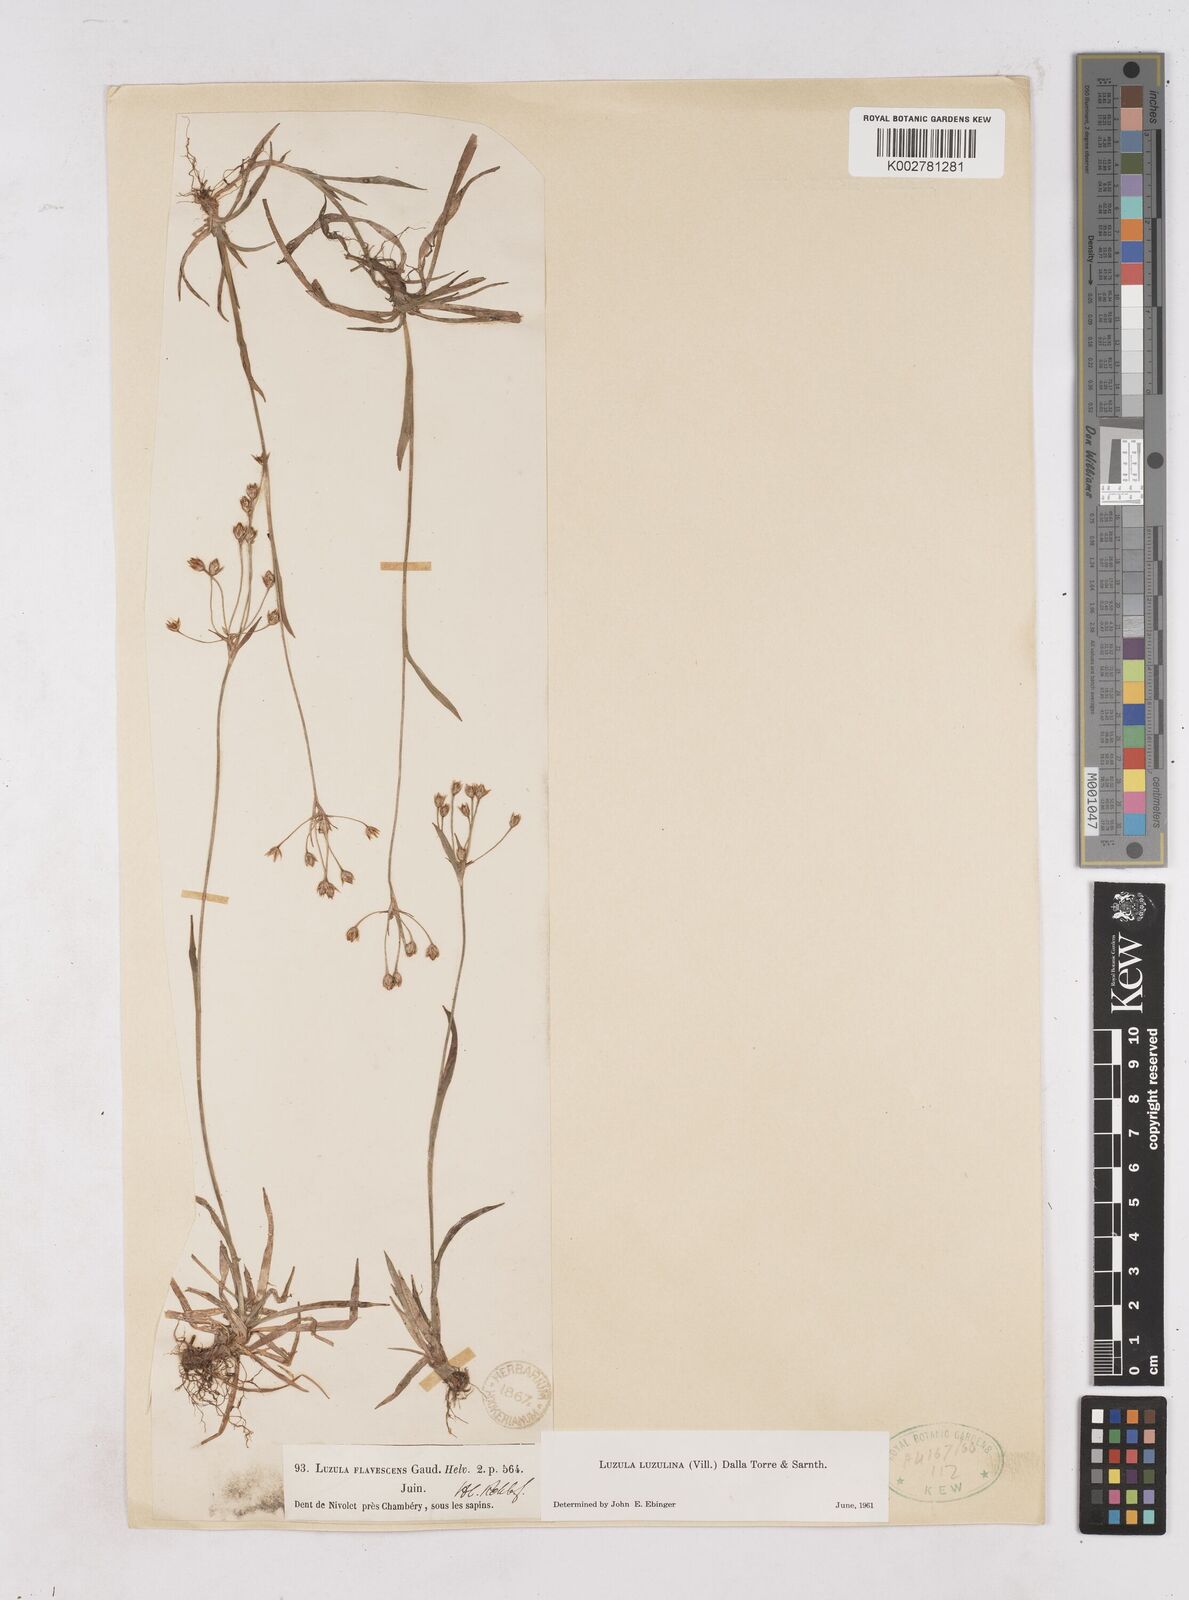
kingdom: Plantae
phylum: Tracheophyta
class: Liliopsida
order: Poales
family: Juncaceae
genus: Luzula
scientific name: Luzula luzulina
